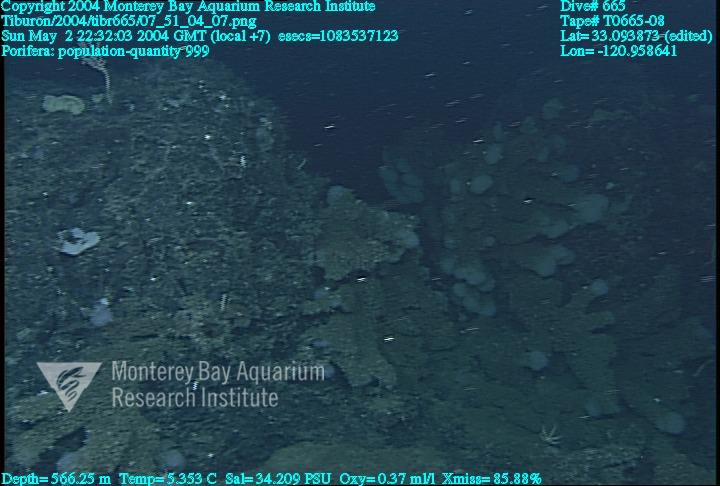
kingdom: Animalia
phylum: Porifera
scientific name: Porifera
